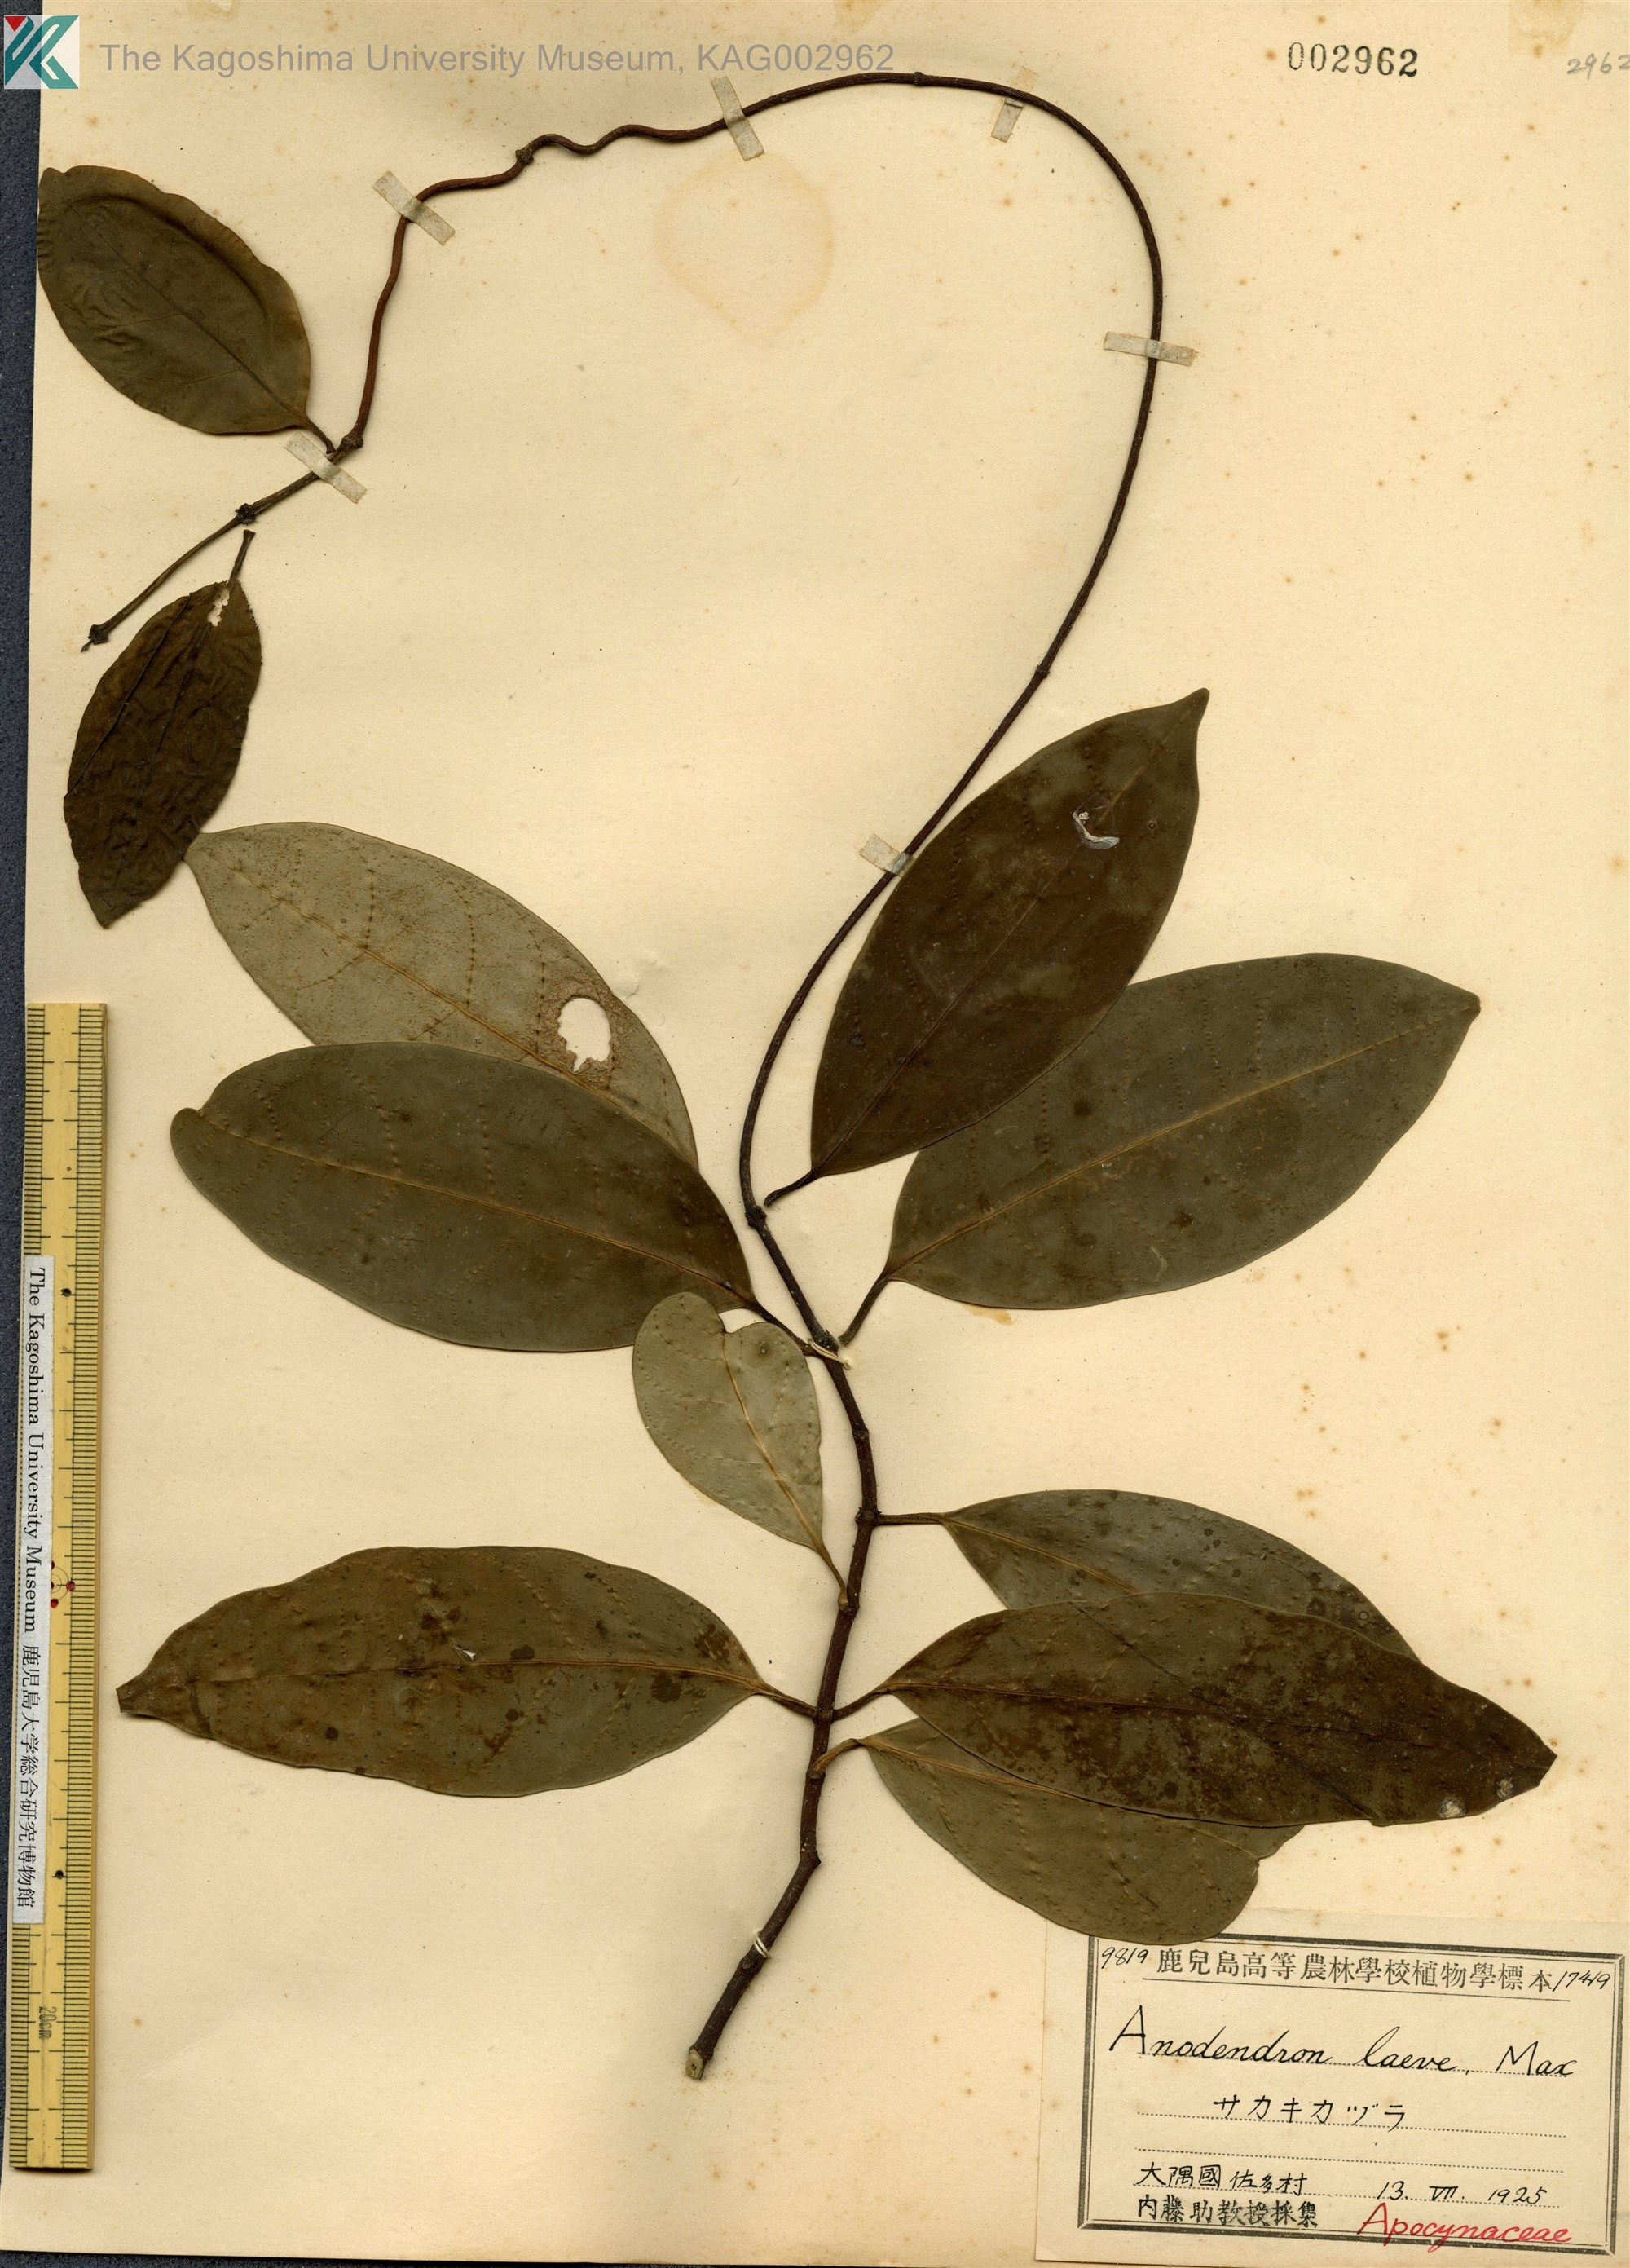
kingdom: Plantae
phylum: Tracheophyta
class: Magnoliopsida
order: Gentianales
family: Apocynaceae
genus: Anodendron
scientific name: Anodendron affine
